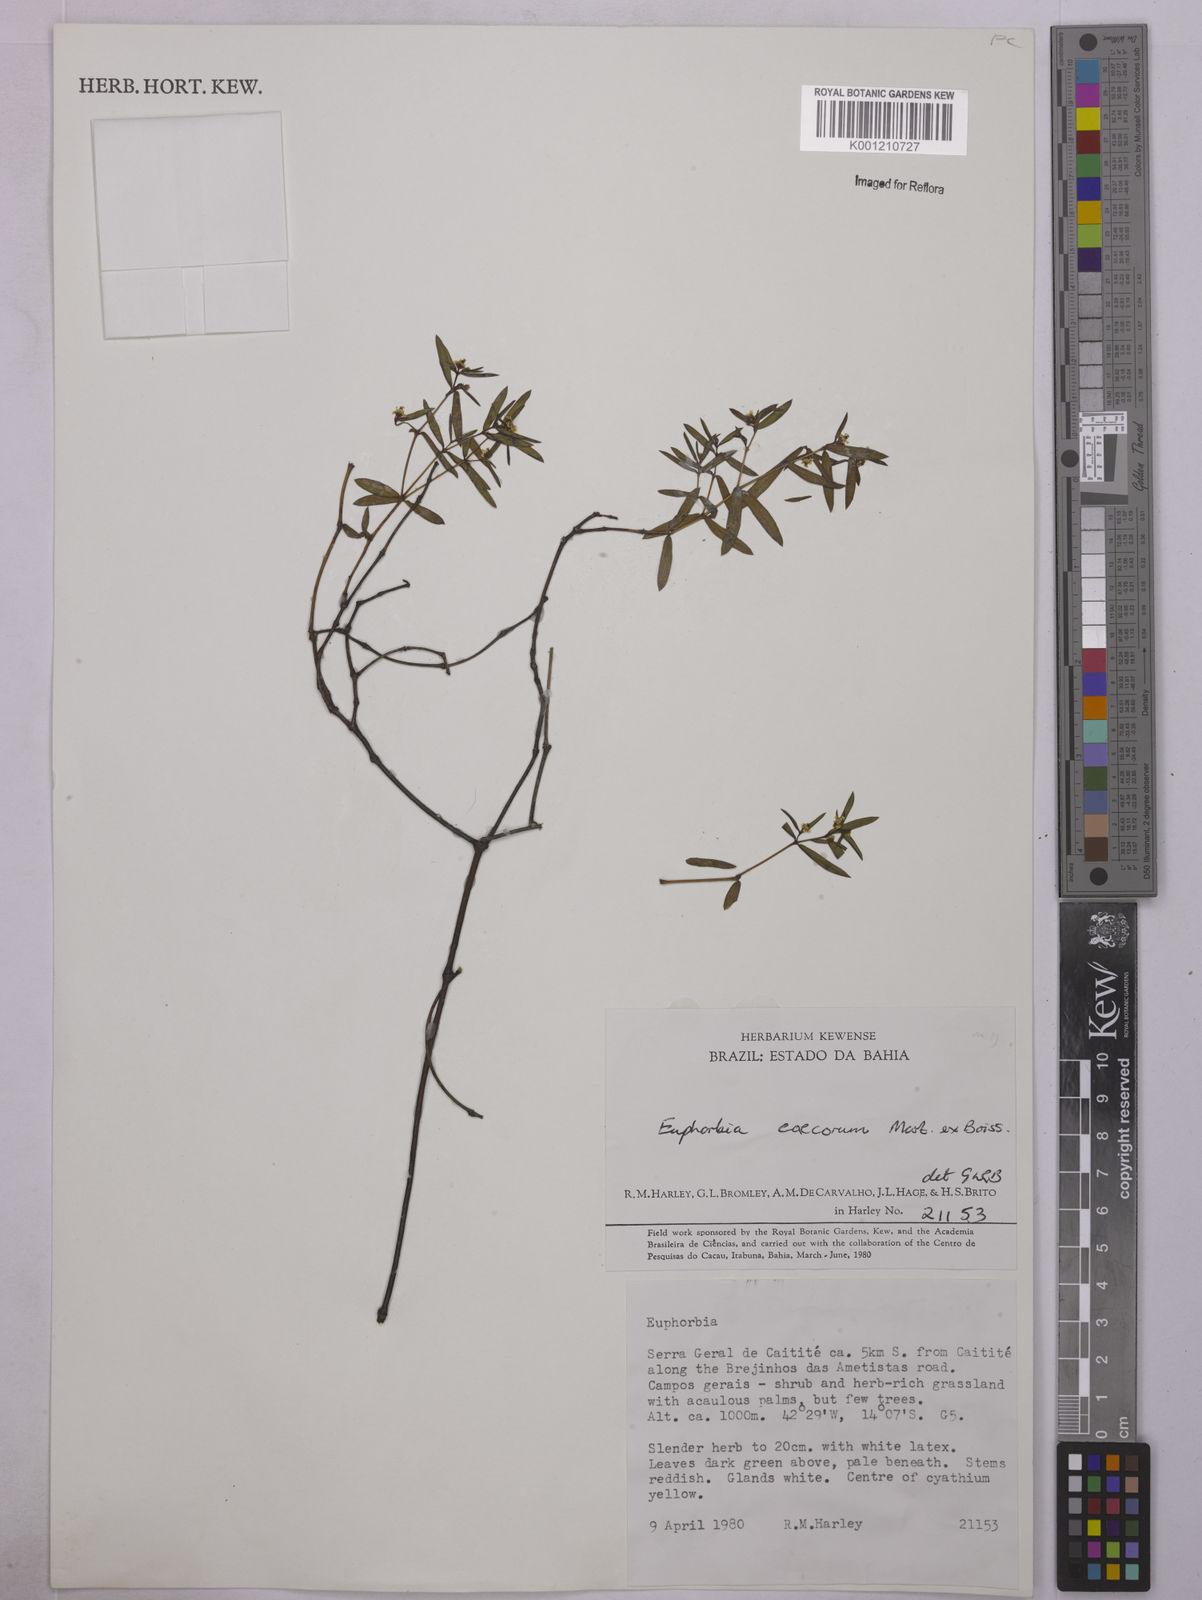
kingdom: Plantae
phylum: Tracheophyta
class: Magnoliopsida
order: Malpighiales
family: Euphorbiaceae
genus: Euphorbia
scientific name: Euphorbia potentilloides
